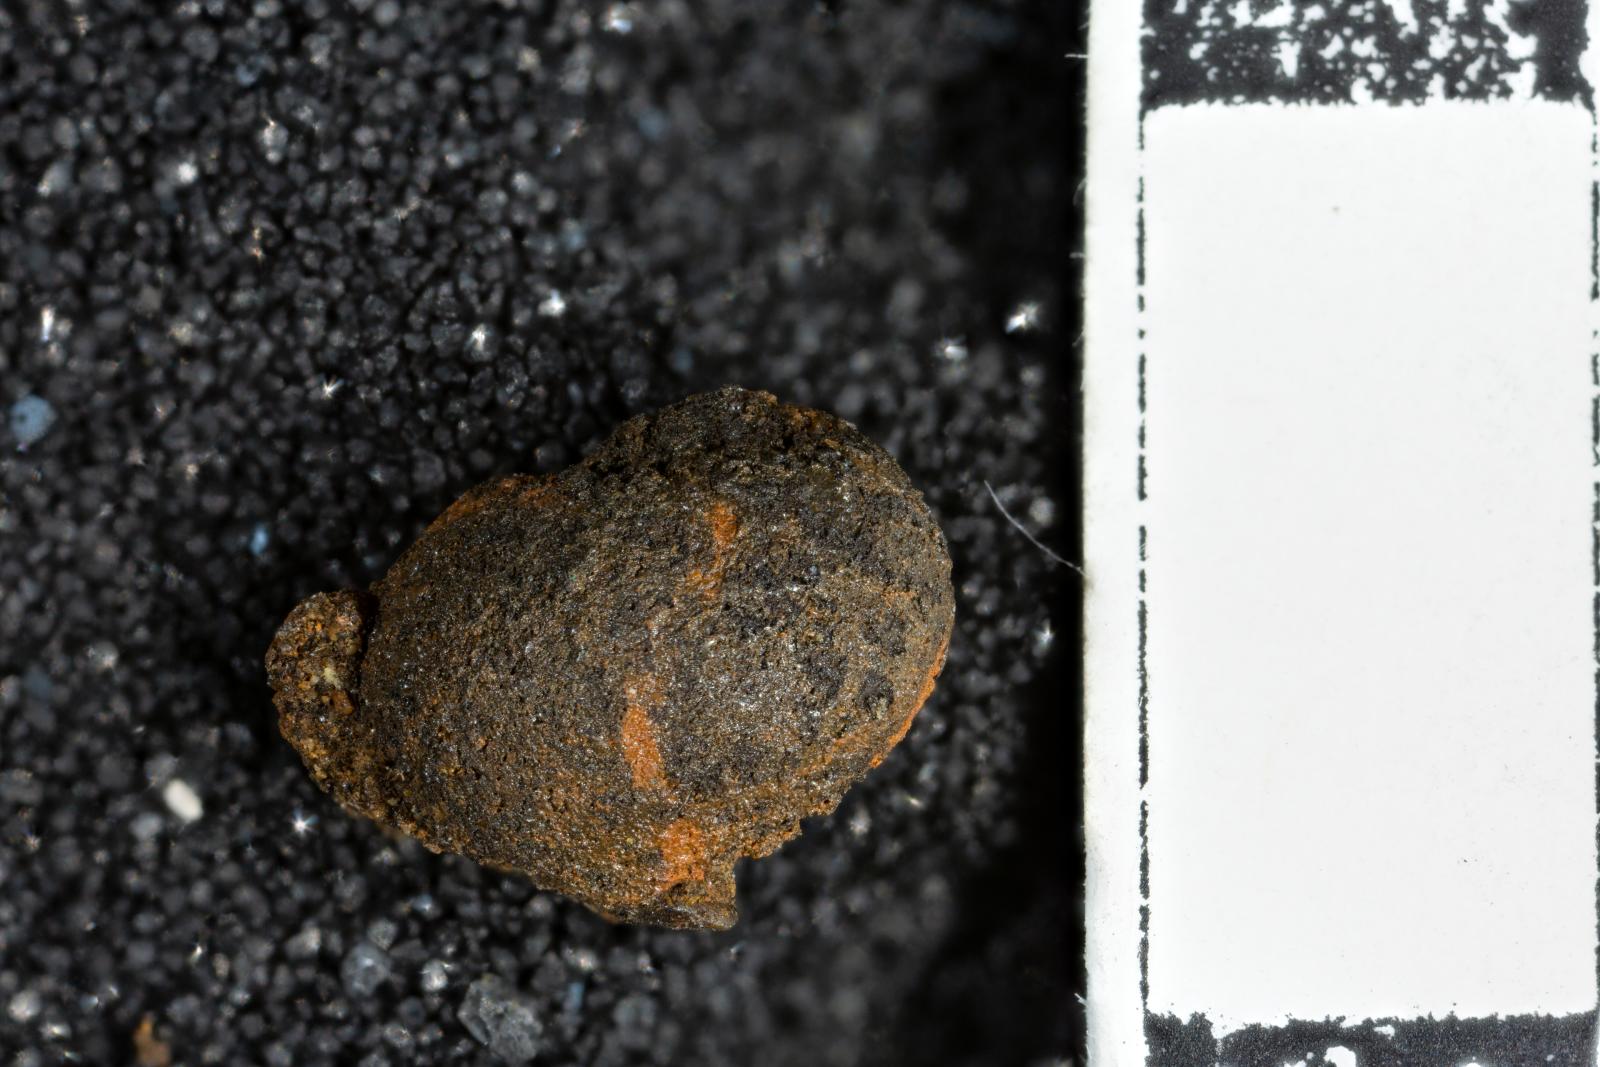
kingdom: Animalia
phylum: Mollusca
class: Gastropoda
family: Gyrodidae
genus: Gyrodes
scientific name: Gyrodes quercus
